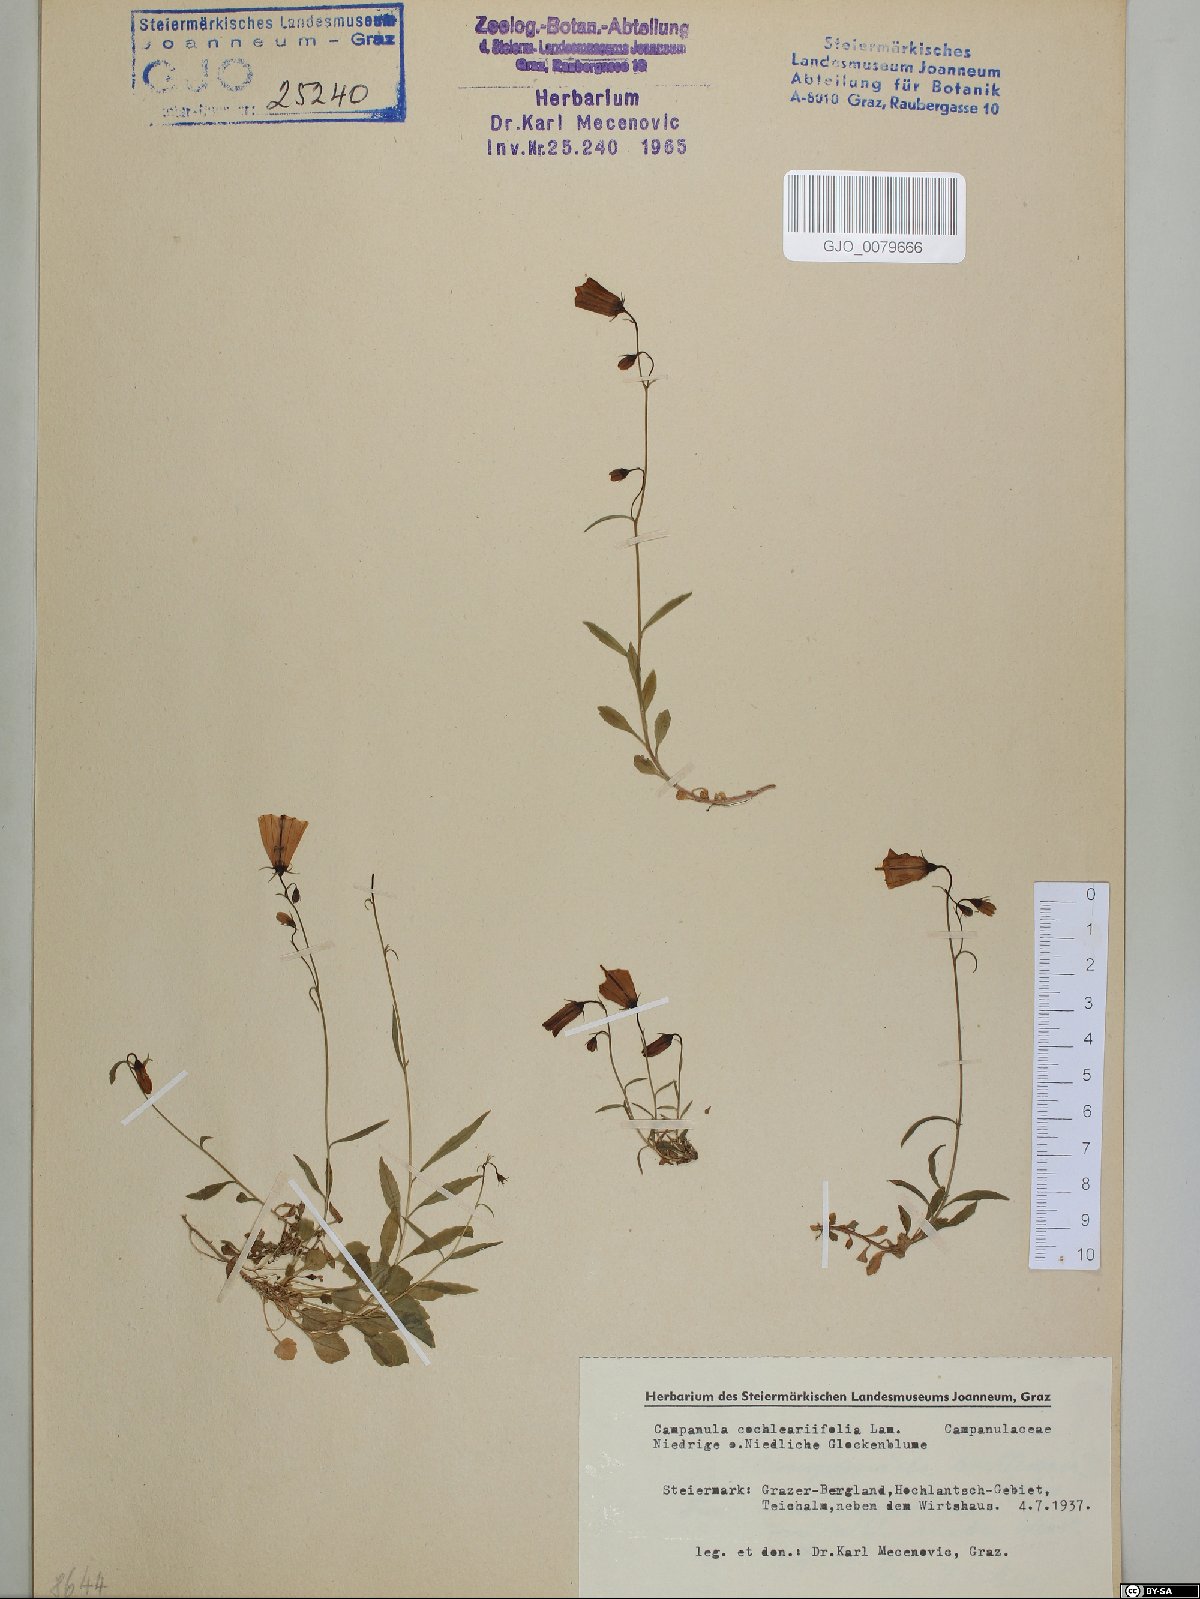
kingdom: Plantae
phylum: Tracheophyta
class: Magnoliopsida
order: Asterales
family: Campanulaceae
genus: Campanula
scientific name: Campanula cochleariifolia
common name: Fairies'-thimbles
